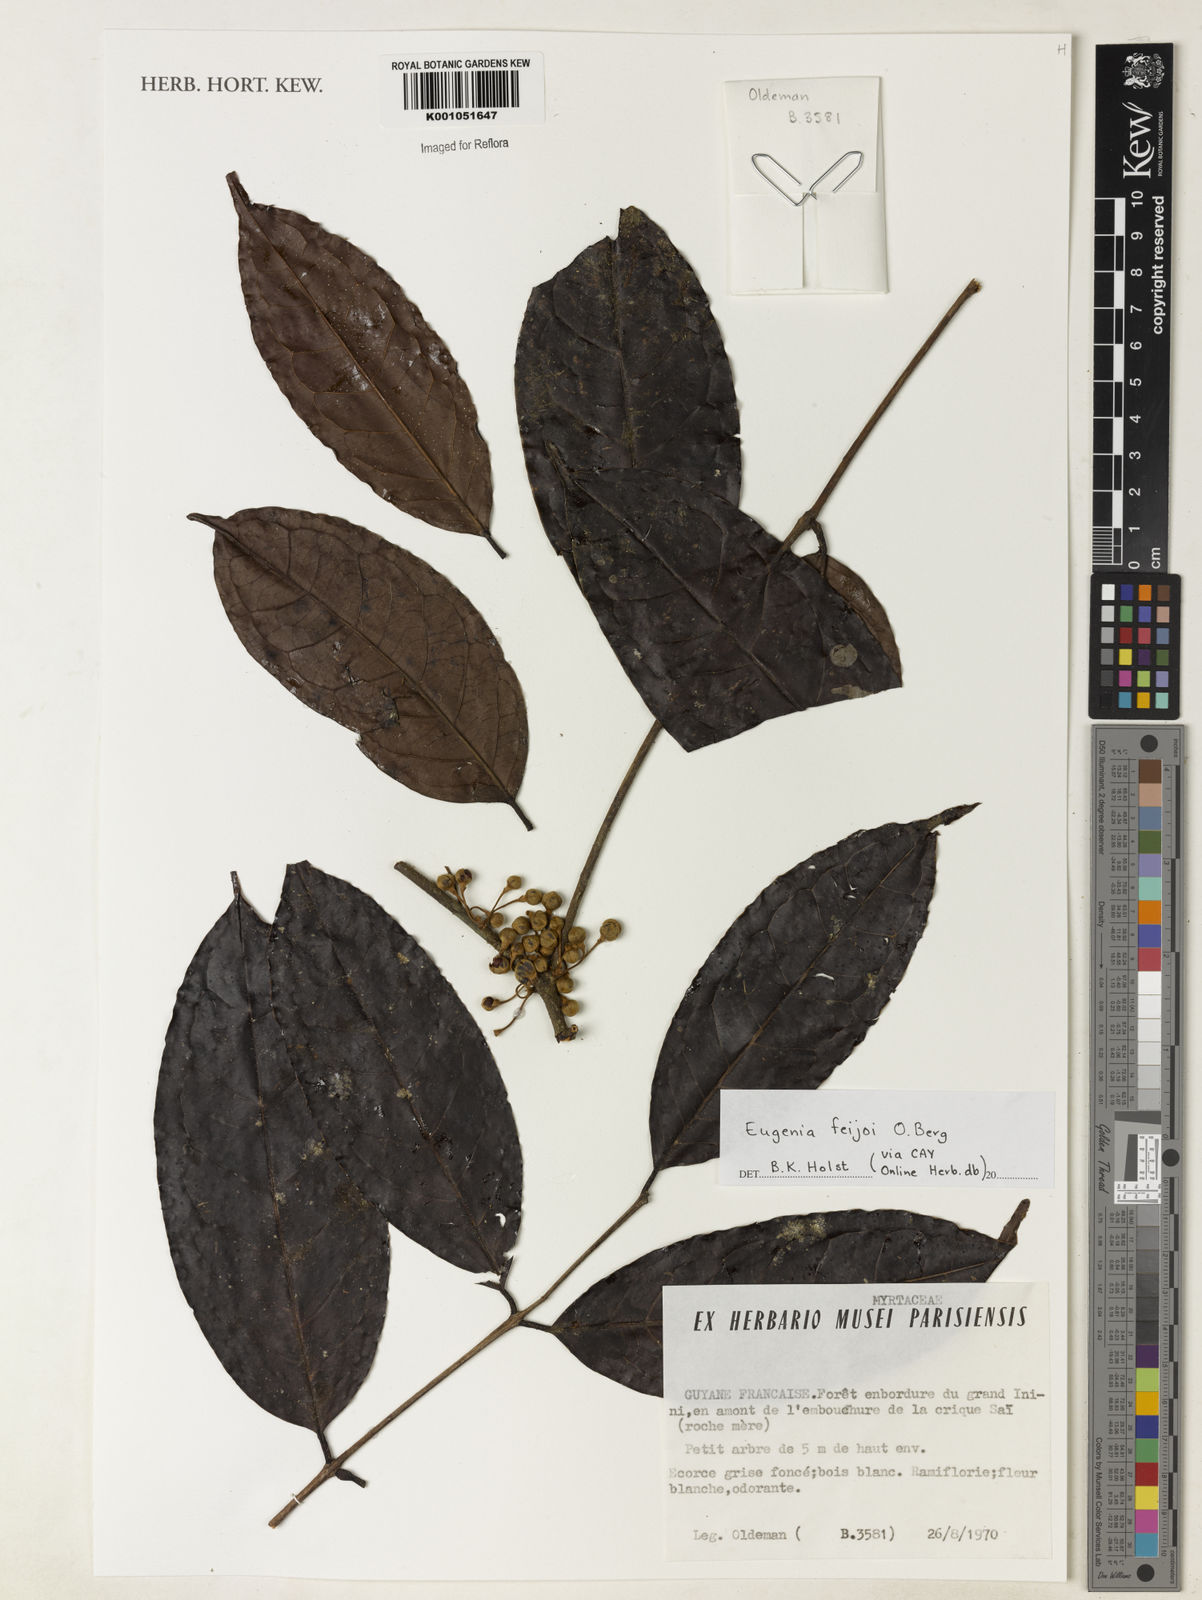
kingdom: Plantae
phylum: Tracheophyta
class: Magnoliopsida
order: Myrtales
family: Myrtaceae
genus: Eugenia
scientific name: Eugenia
